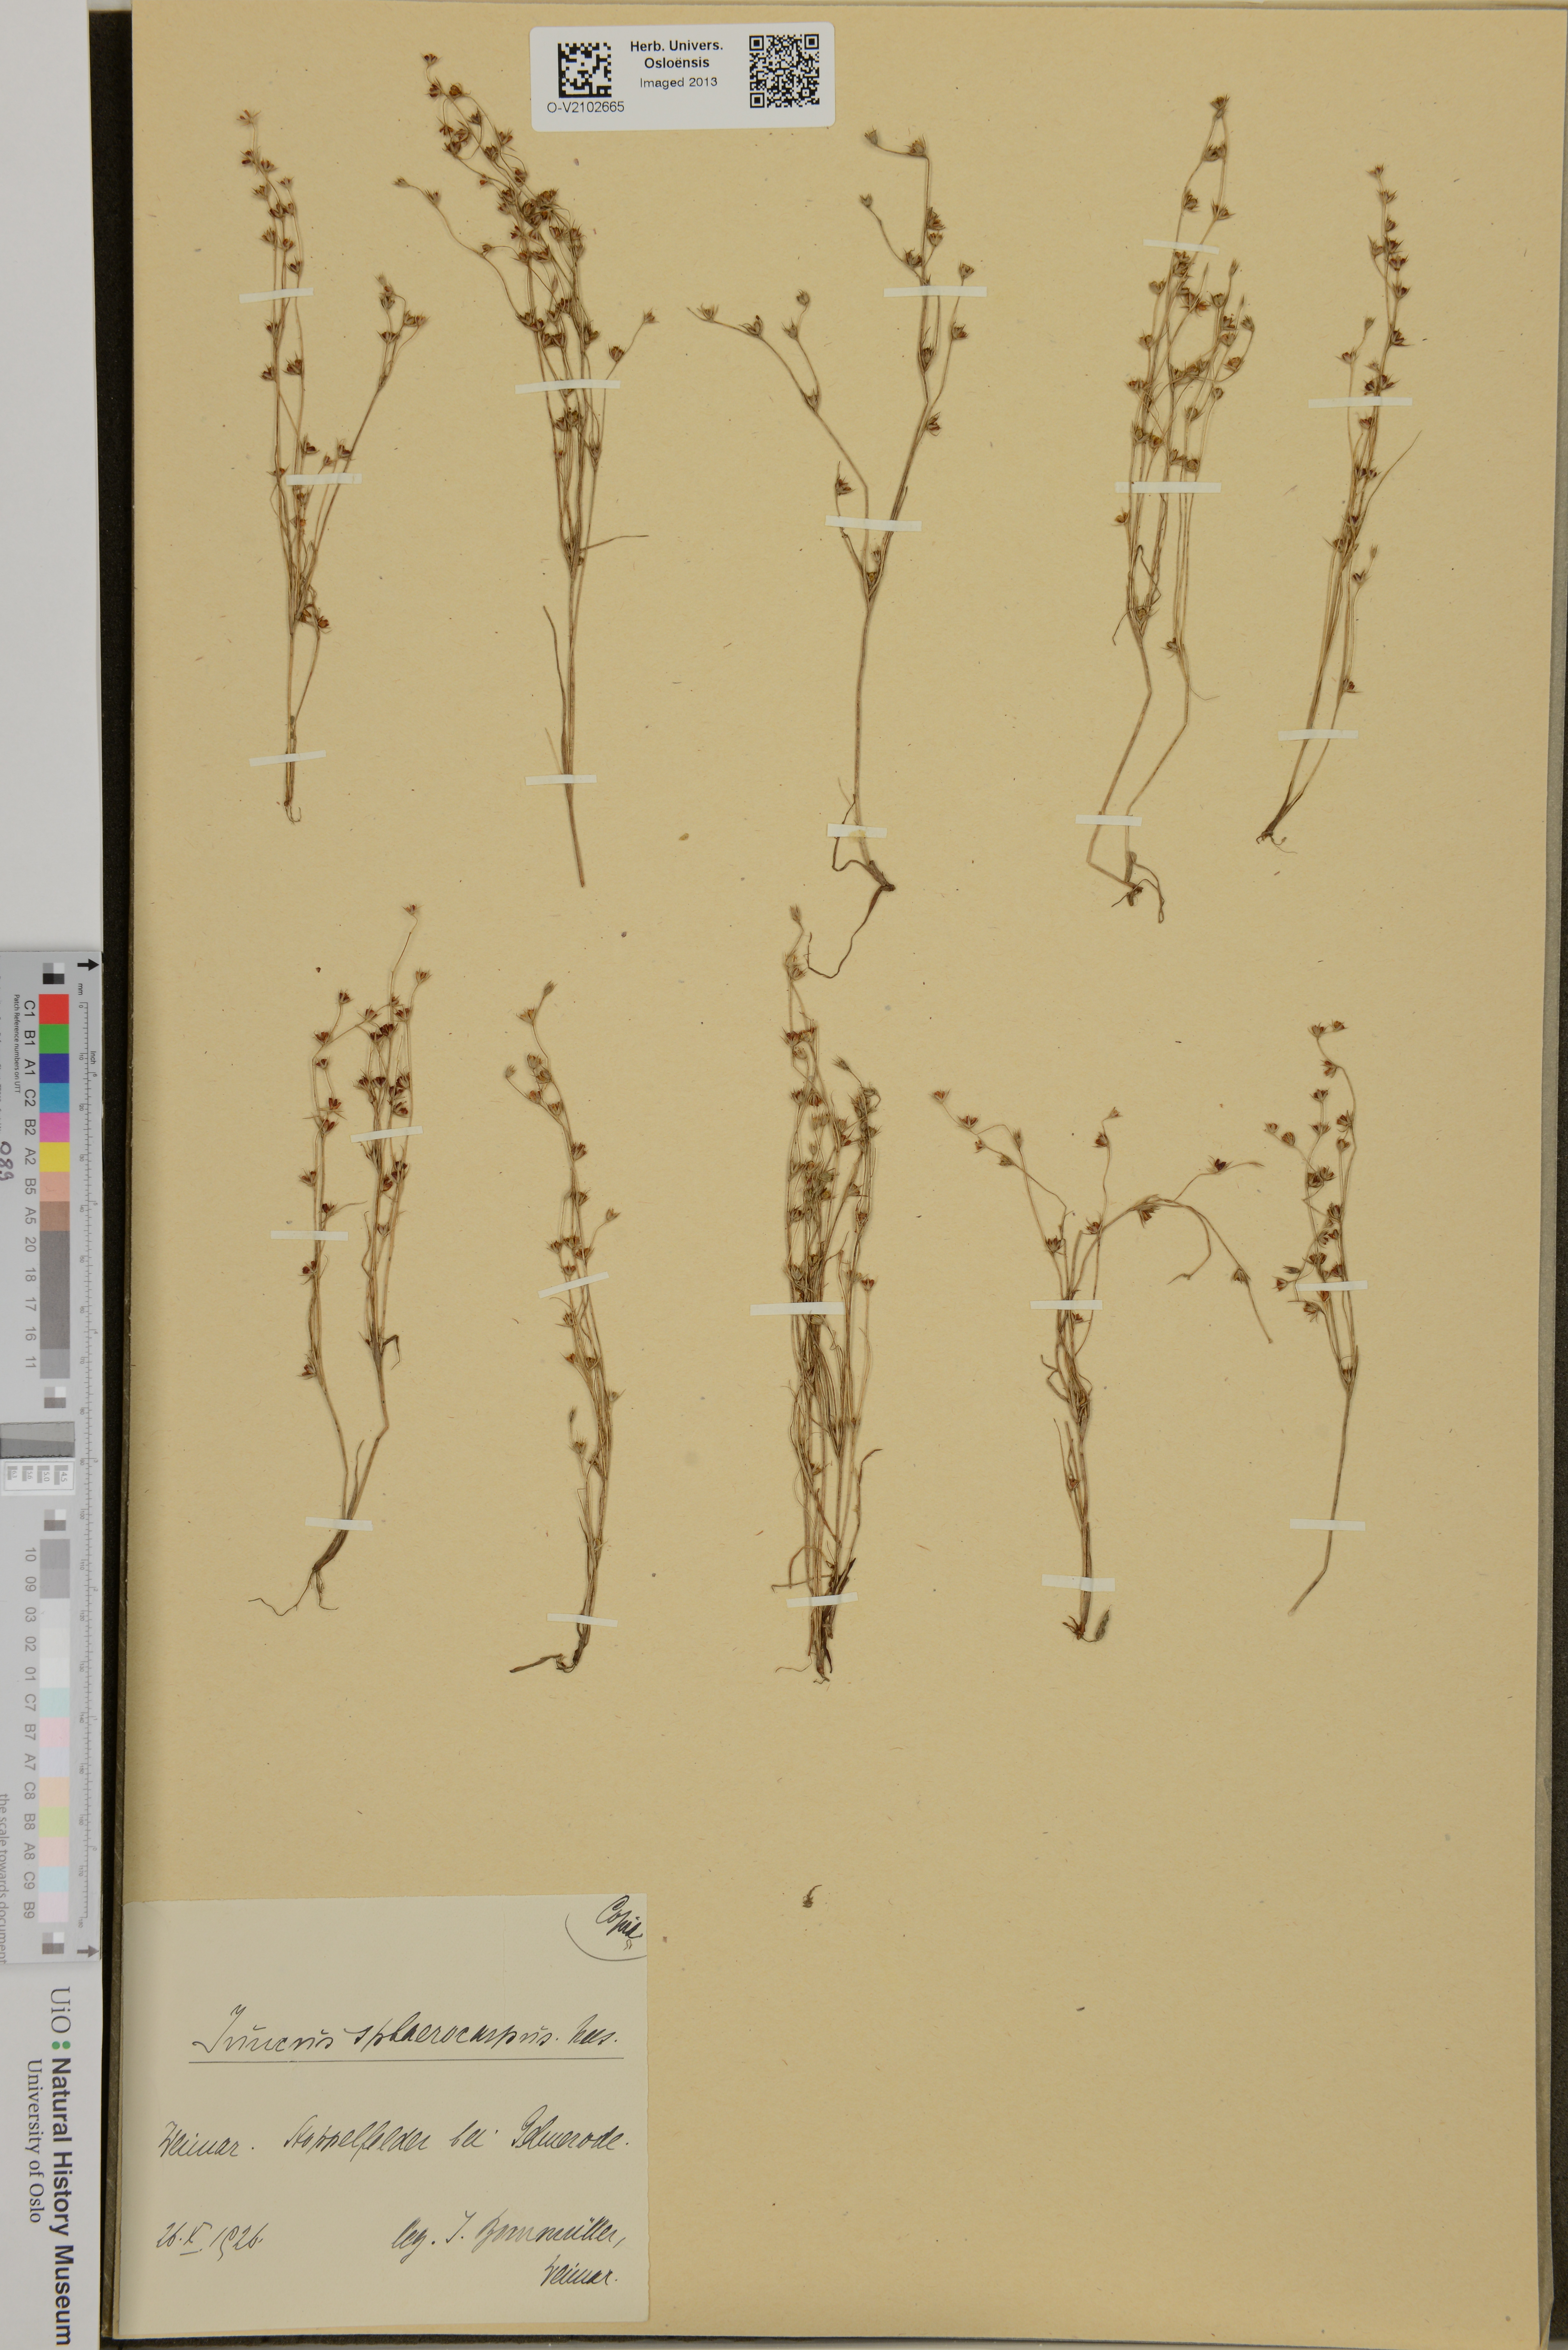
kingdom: Plantae
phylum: Tracheophyta
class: Liliopsida
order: Poales
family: Juncaceae
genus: Juncus
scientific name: Juncus sphaerocarpus
